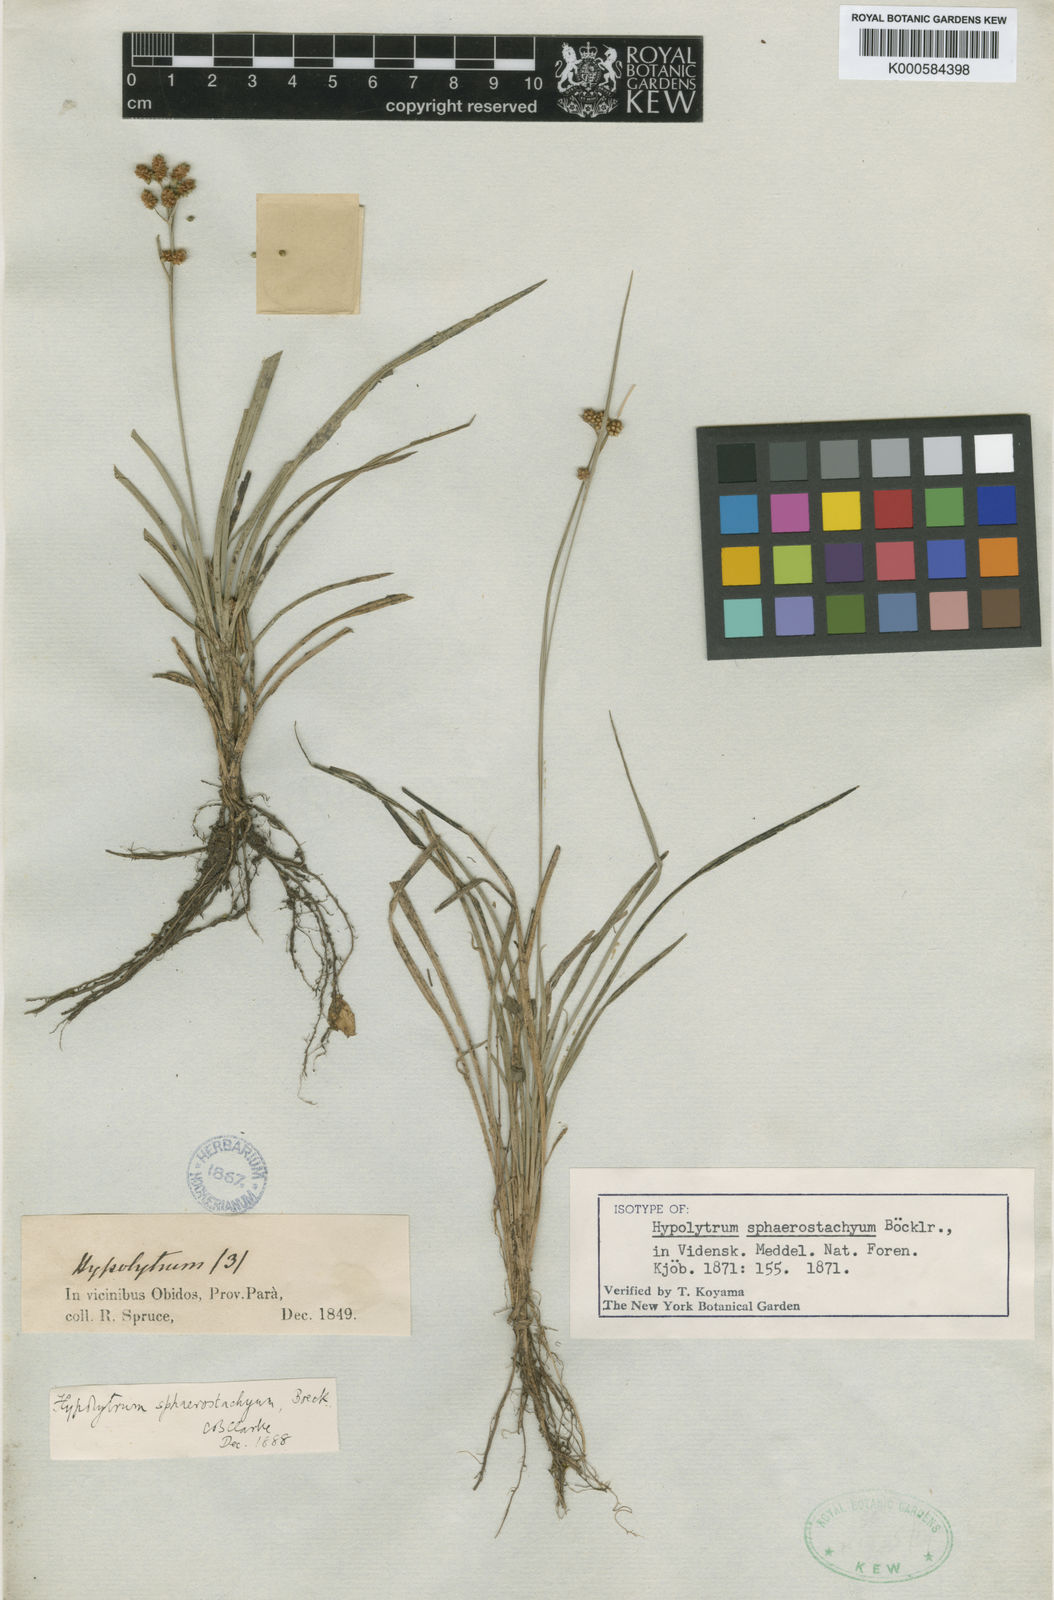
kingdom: Plantae
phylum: Tracheophyta
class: Liliopsida
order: Poales
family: Cyperaceae
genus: Hypolytrum
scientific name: Hypolytrum sphaerostachyum
